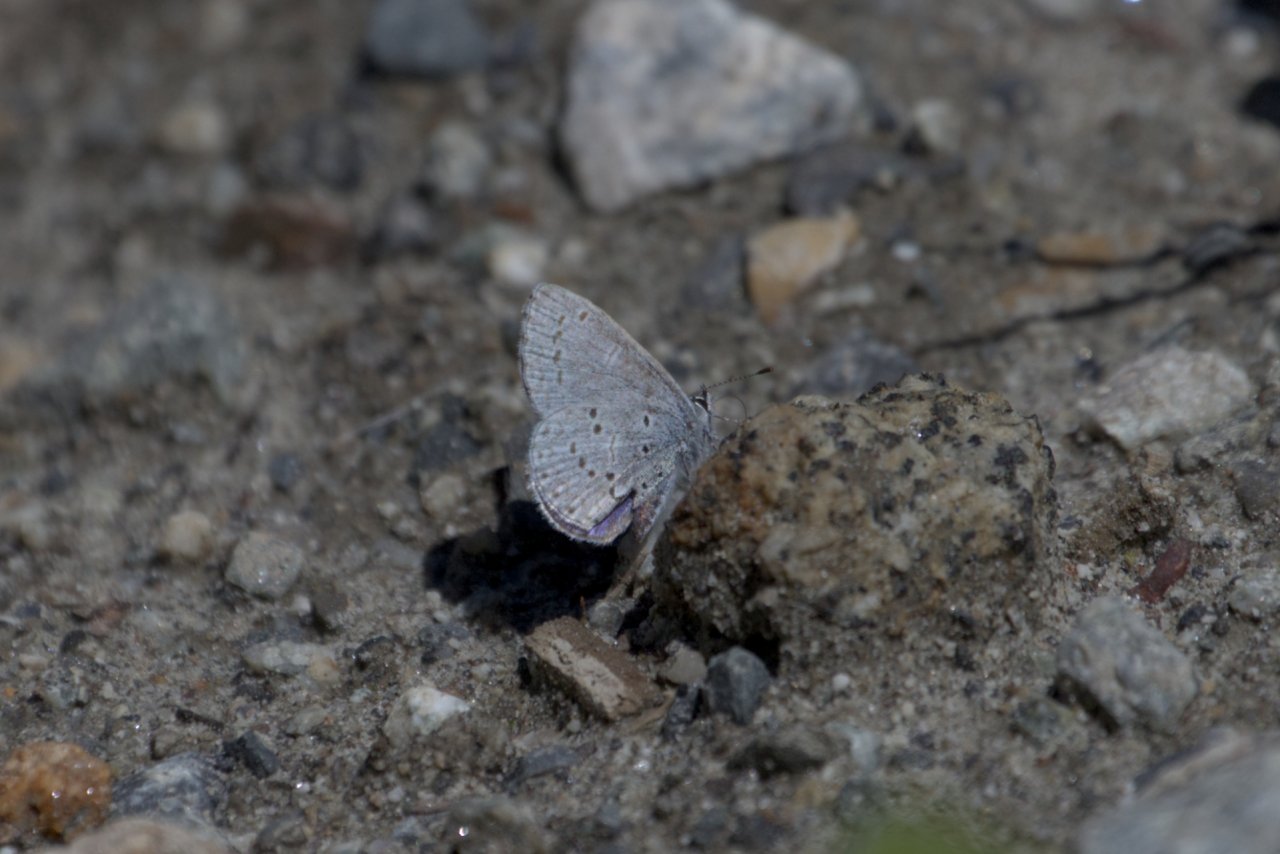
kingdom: Animalia
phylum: Arthropoda
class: Insecta
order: Lepidoptera
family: Lycaenidae
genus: Celastrina
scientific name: Celastrina ladon
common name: Echo Azure
